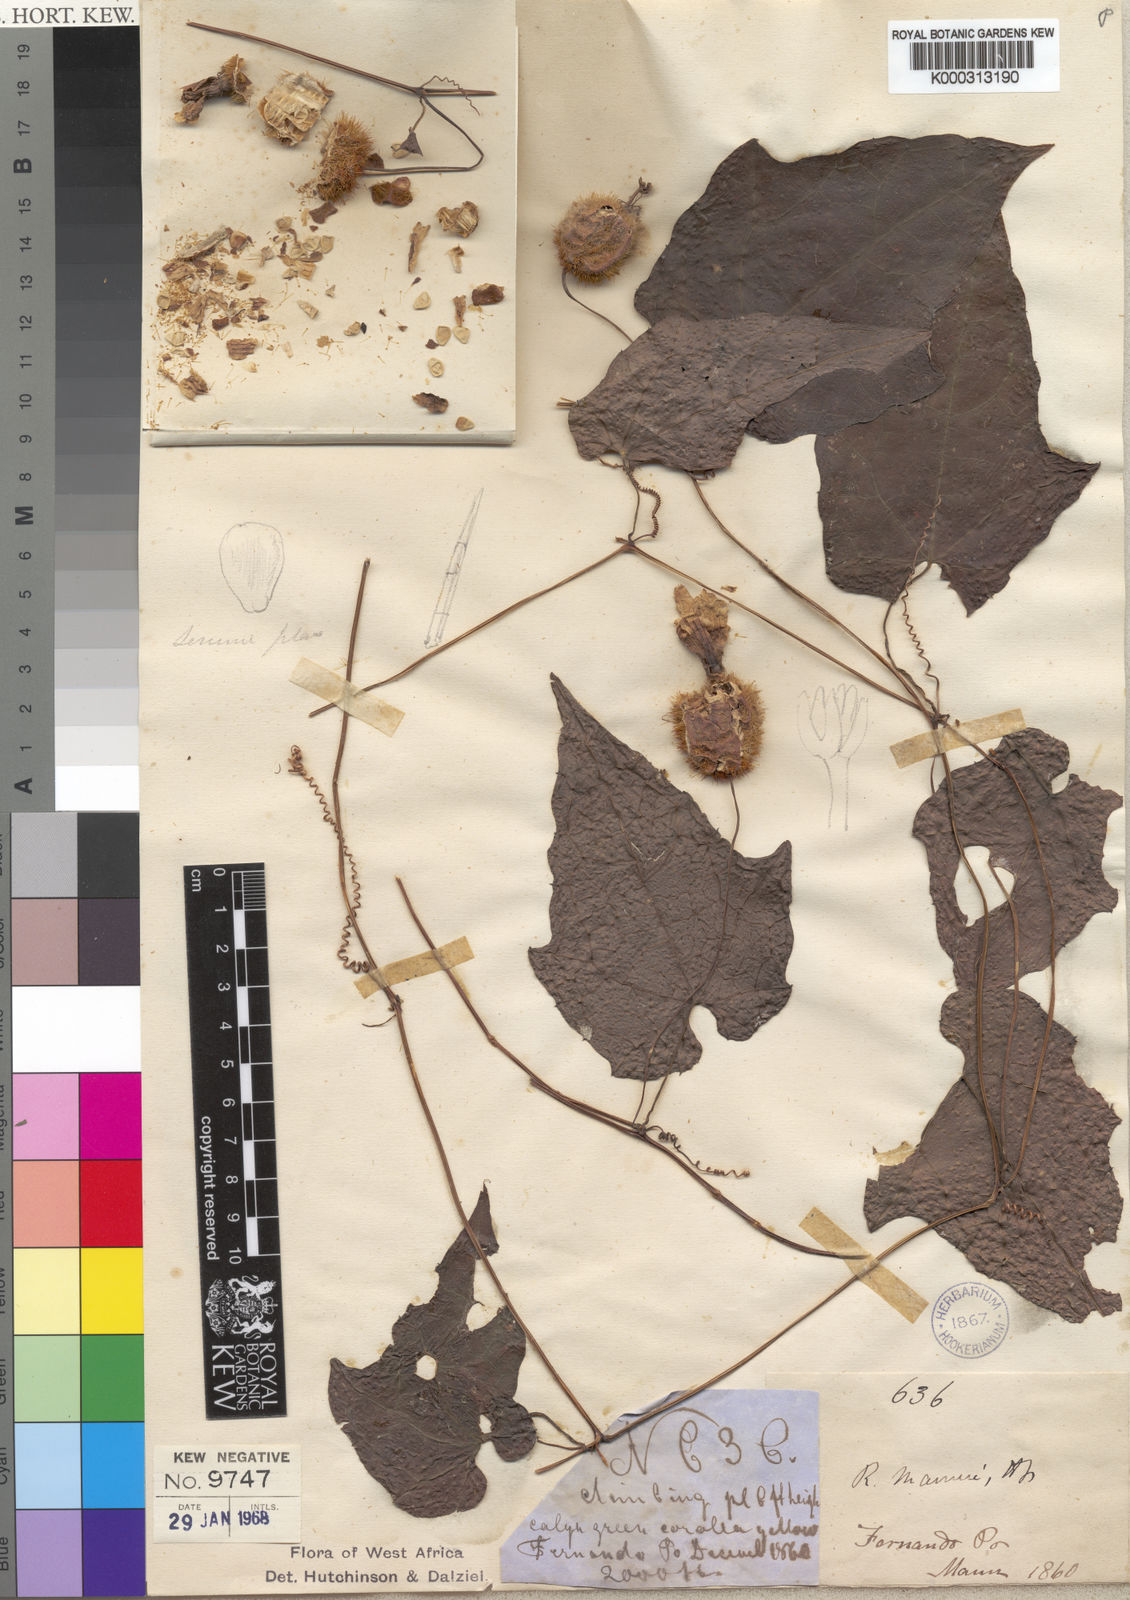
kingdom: Plantae
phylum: Tracheophyta
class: Magnoliopsida
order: Cucurbitales
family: Cucurbitaceae
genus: Raphidiocystis
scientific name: Raphidiocystis mannii
